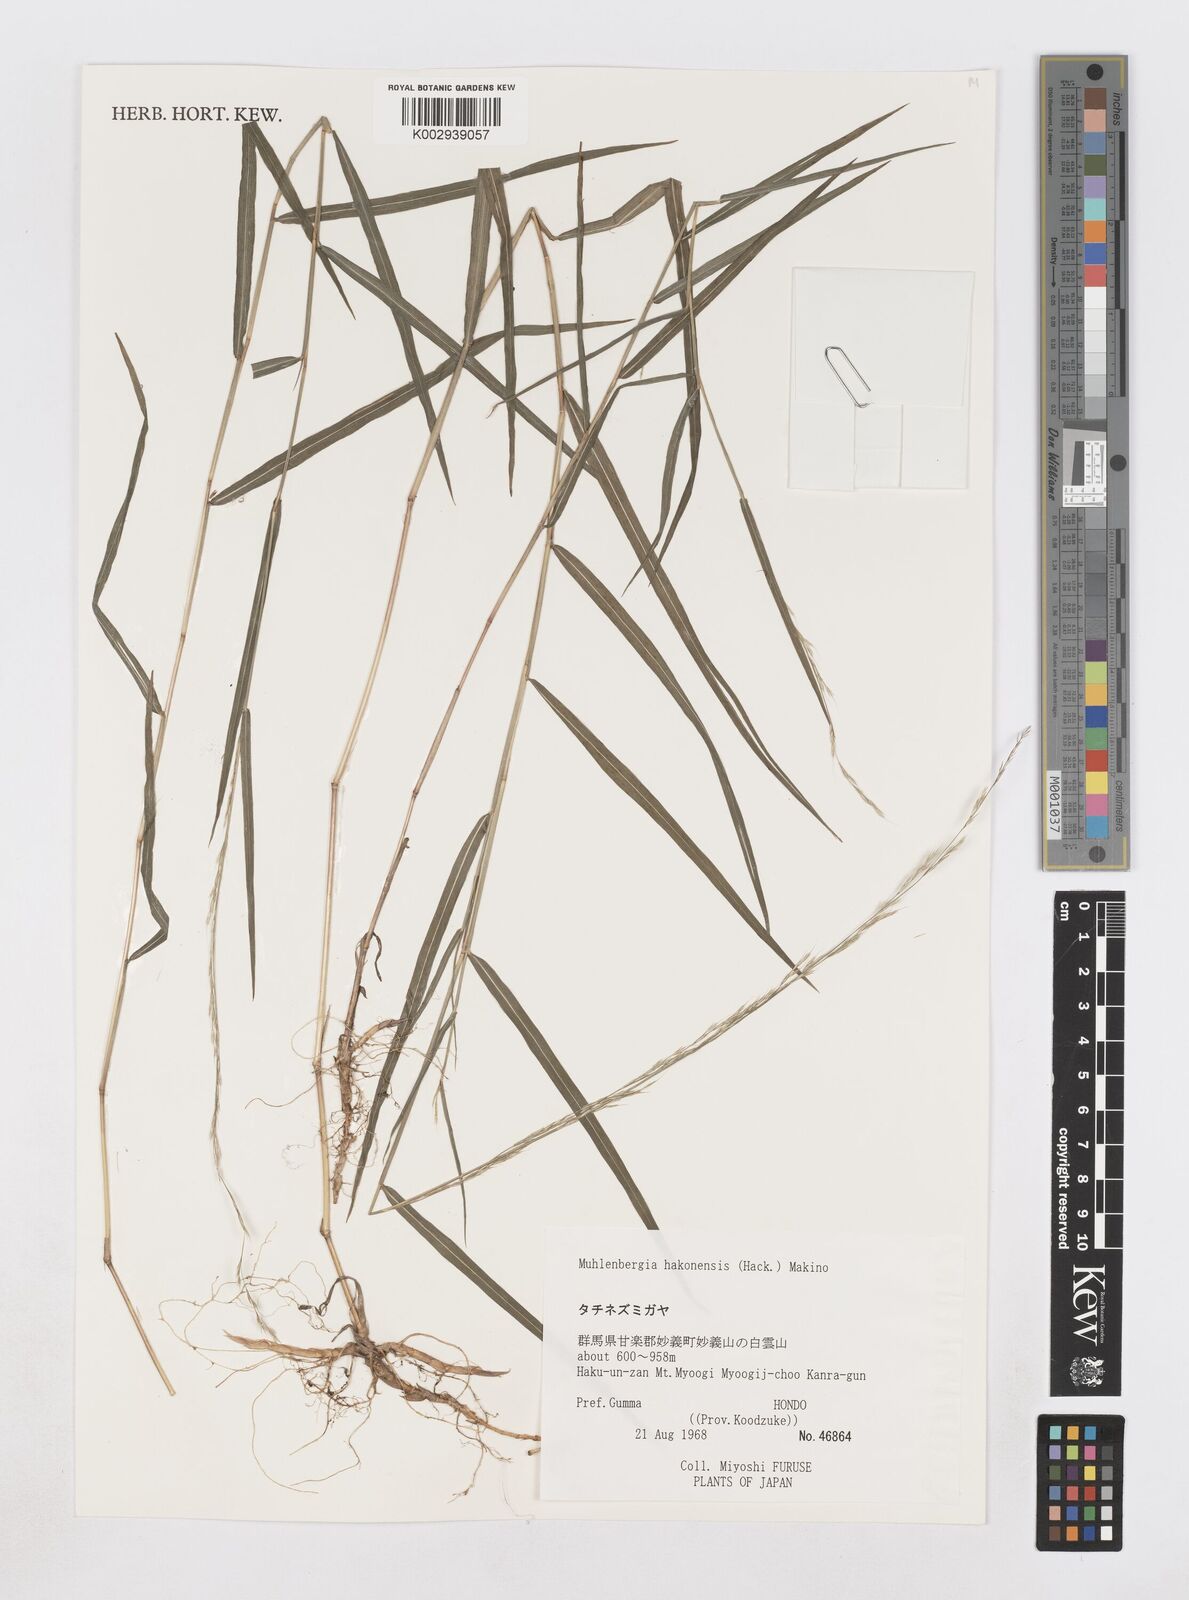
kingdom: Plantae
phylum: Tracheophyta
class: Liliopsida
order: Poales
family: Poaceae
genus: Muhlenbergia
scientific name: Muhlenbergia hakonensis
